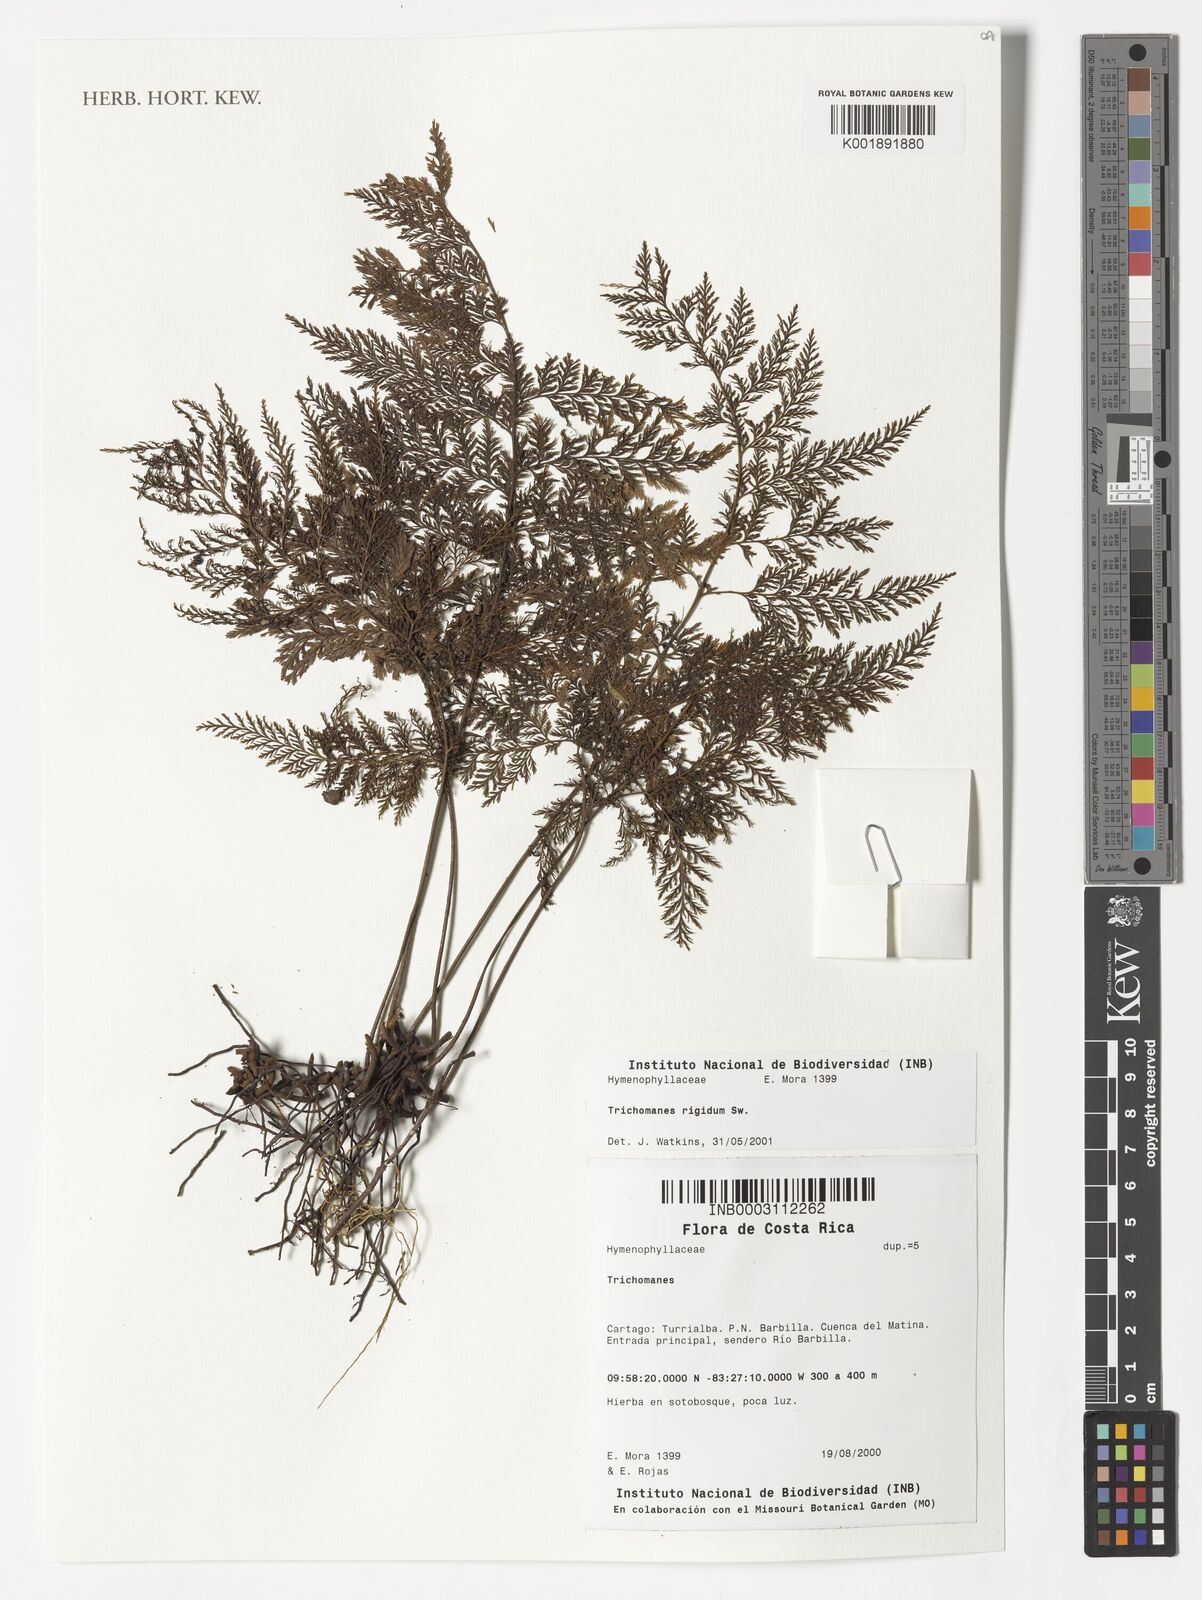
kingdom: Plantae
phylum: Tracheophyta
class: Polypodiopsida
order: Hymenophyllales
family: Hymenophyllaceae
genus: Abrodictyum
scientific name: Abrodictyum rigidum
